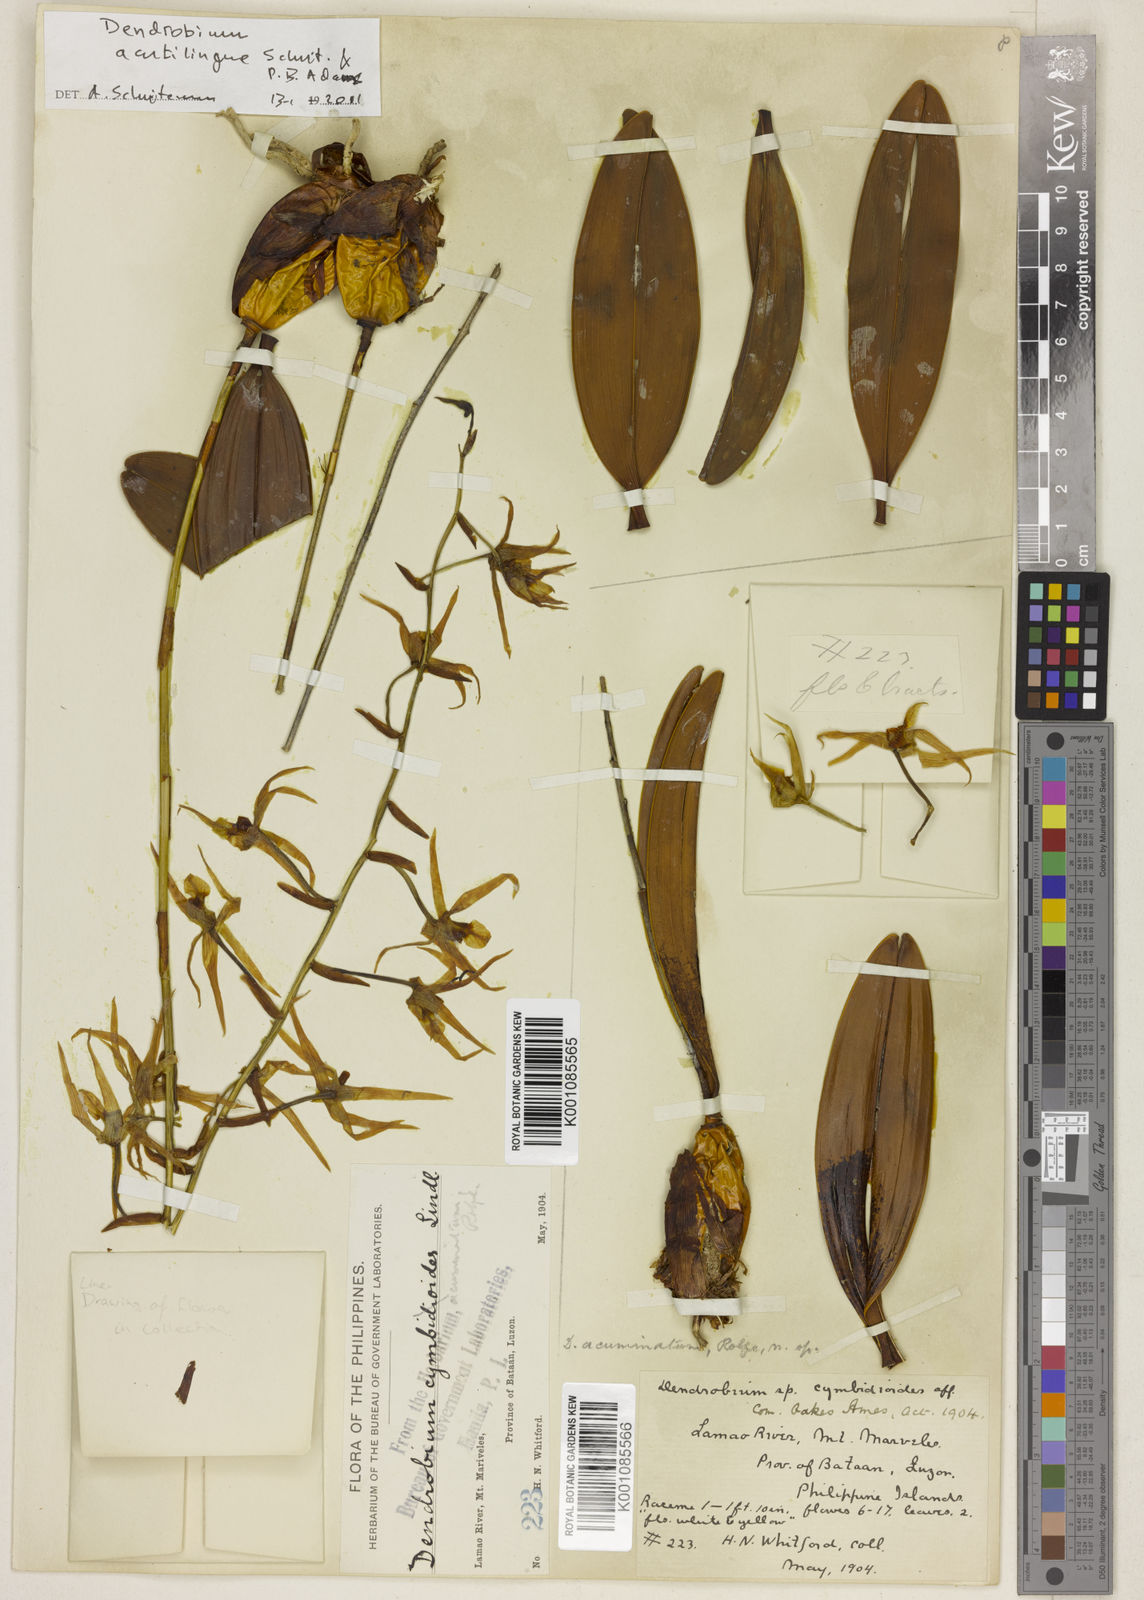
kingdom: Plantae
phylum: Tracheophyta
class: Liliopsida
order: Asparagales
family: Orchidaceae
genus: Dendrobium
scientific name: Dendrobium
